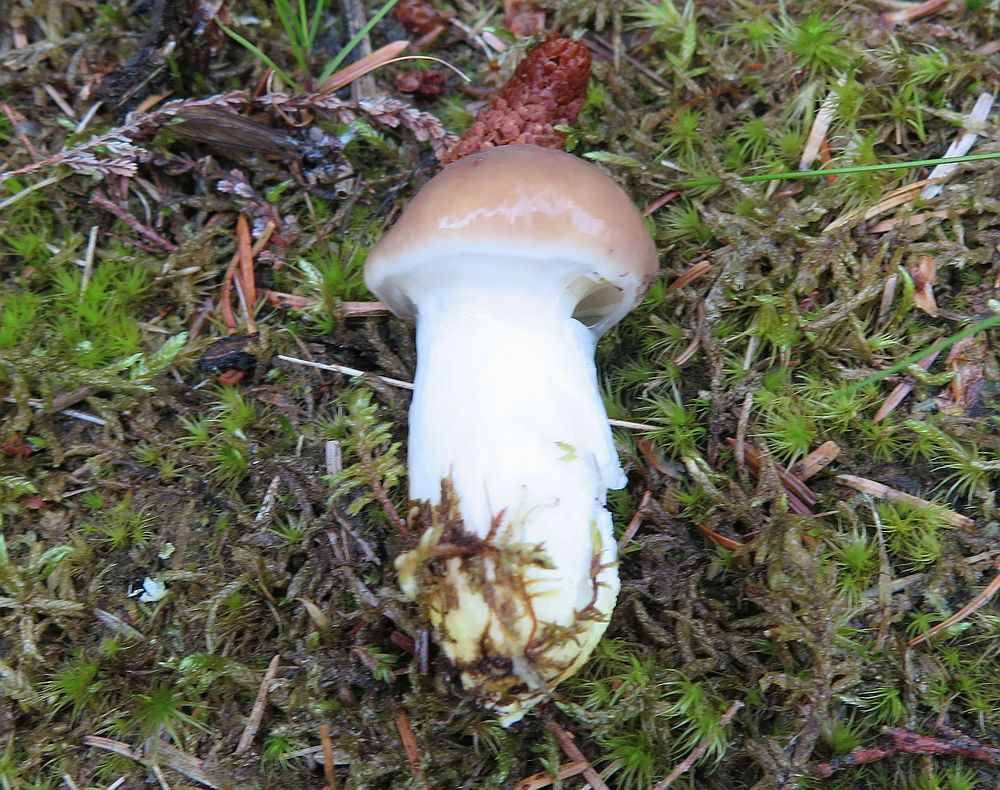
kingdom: Fungi
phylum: Basidiomycota
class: Agaricomycetes
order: Boletales
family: Gomphidiaceae
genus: Gomphidius
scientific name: Gomphidius glutinosus
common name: grå slimslør
